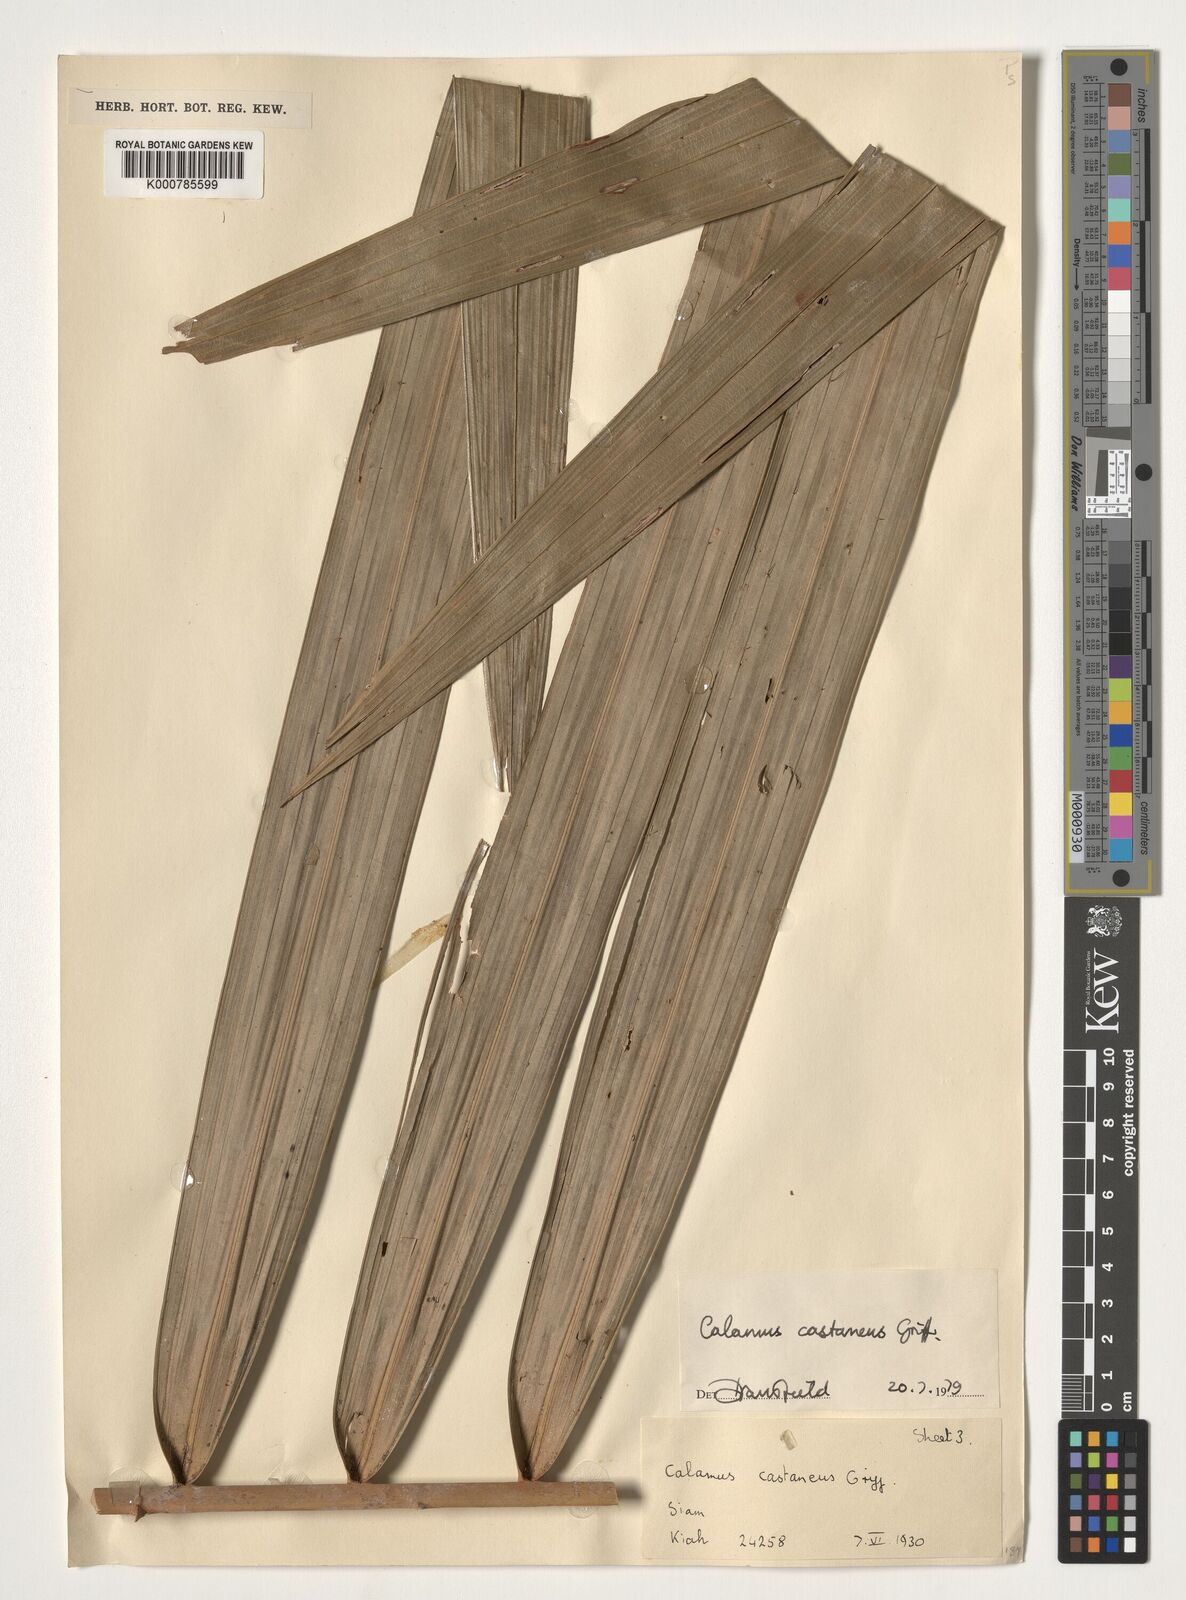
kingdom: Plantae
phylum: Tracheophyta
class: Liliopsida
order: Arecales
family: Arecaceae
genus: Calamus
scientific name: Calamus castaneus
